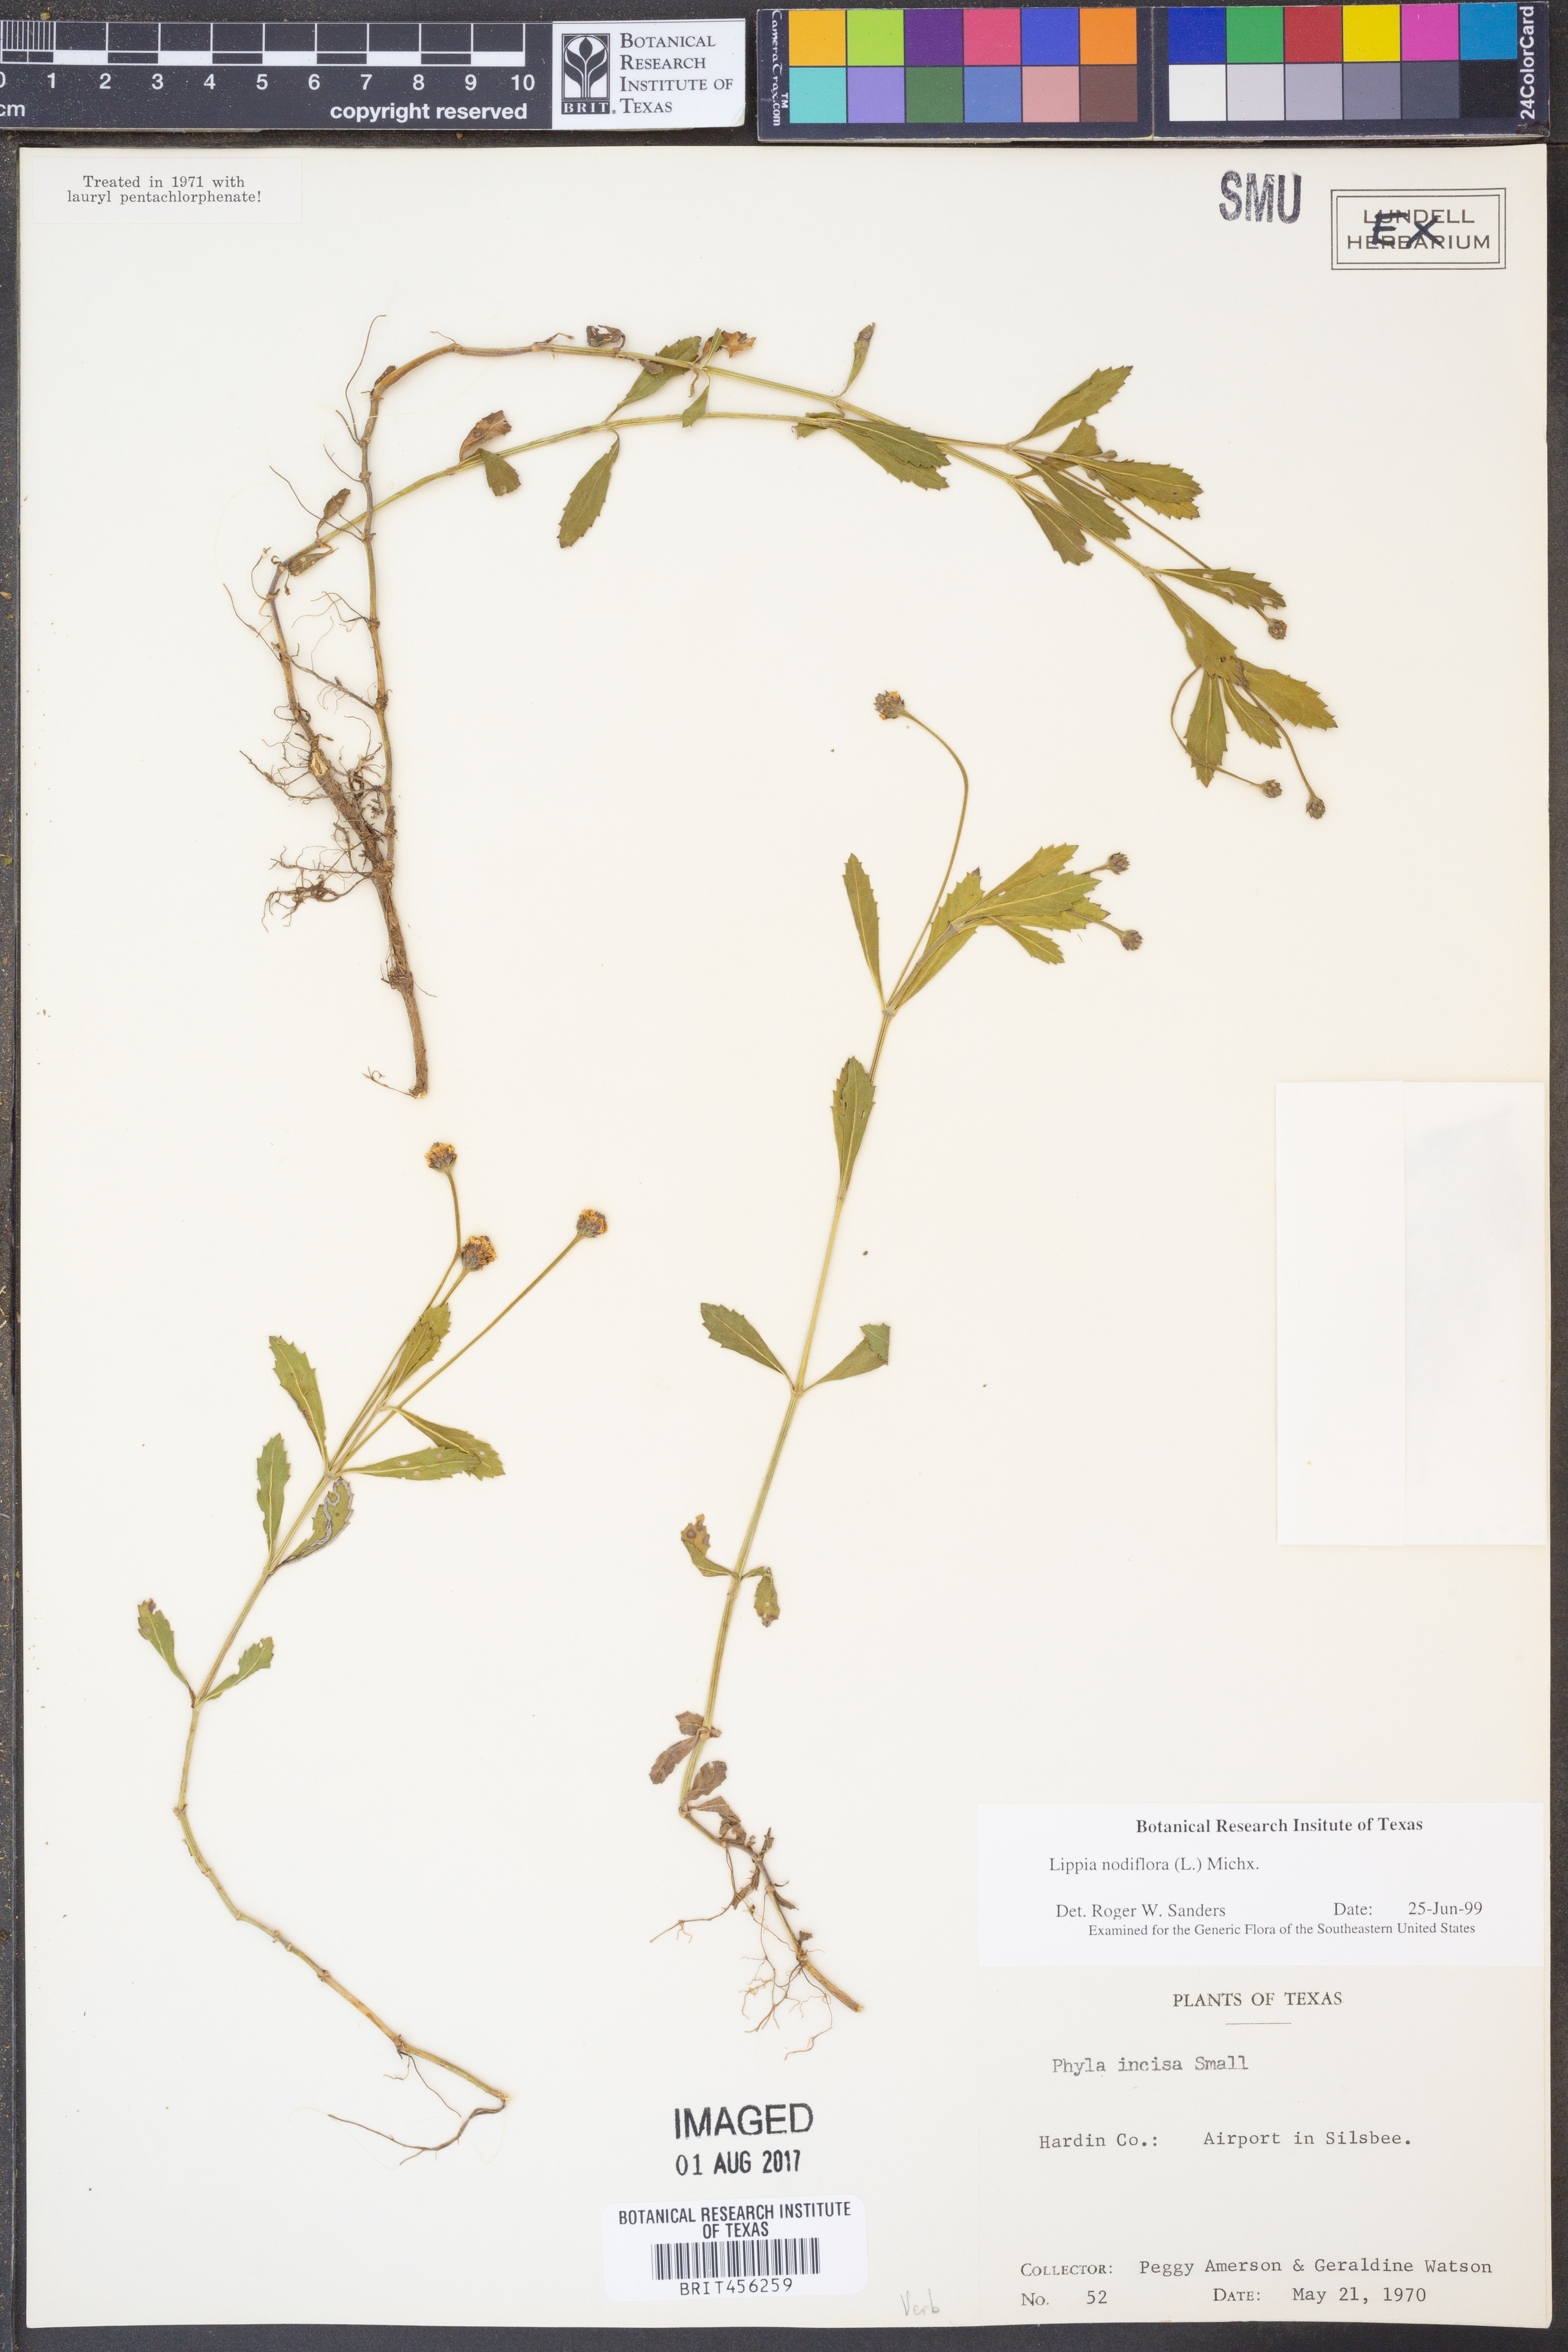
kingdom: Plantae
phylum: Tracheophyta
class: Magnoliopsida
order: Lamiales
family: Verbenaceae
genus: Phyla
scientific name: Phyla nodiflora
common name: Frogfruit
